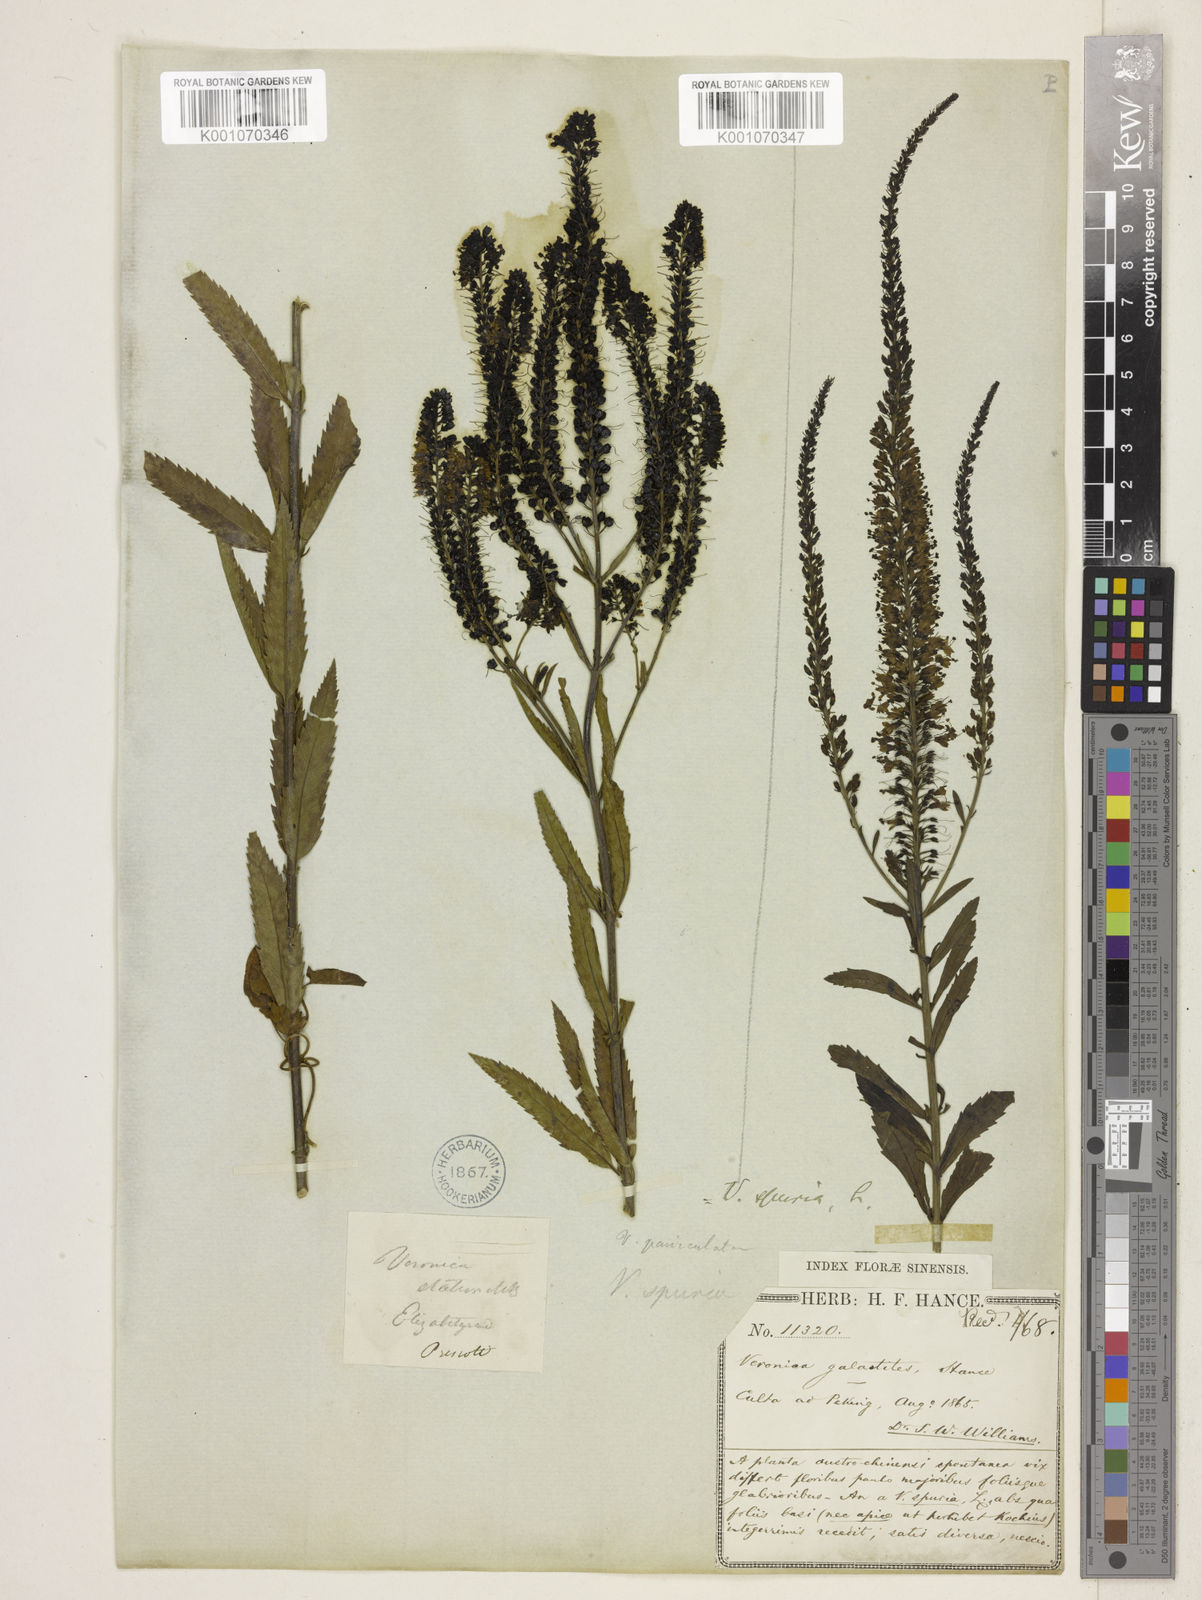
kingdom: Plantae
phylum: Tracheophyta
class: Magnoliopsida
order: Lamiales
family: Plantaginaceae
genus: Veronica
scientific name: Veronica spuria
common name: Bastard speedwell
